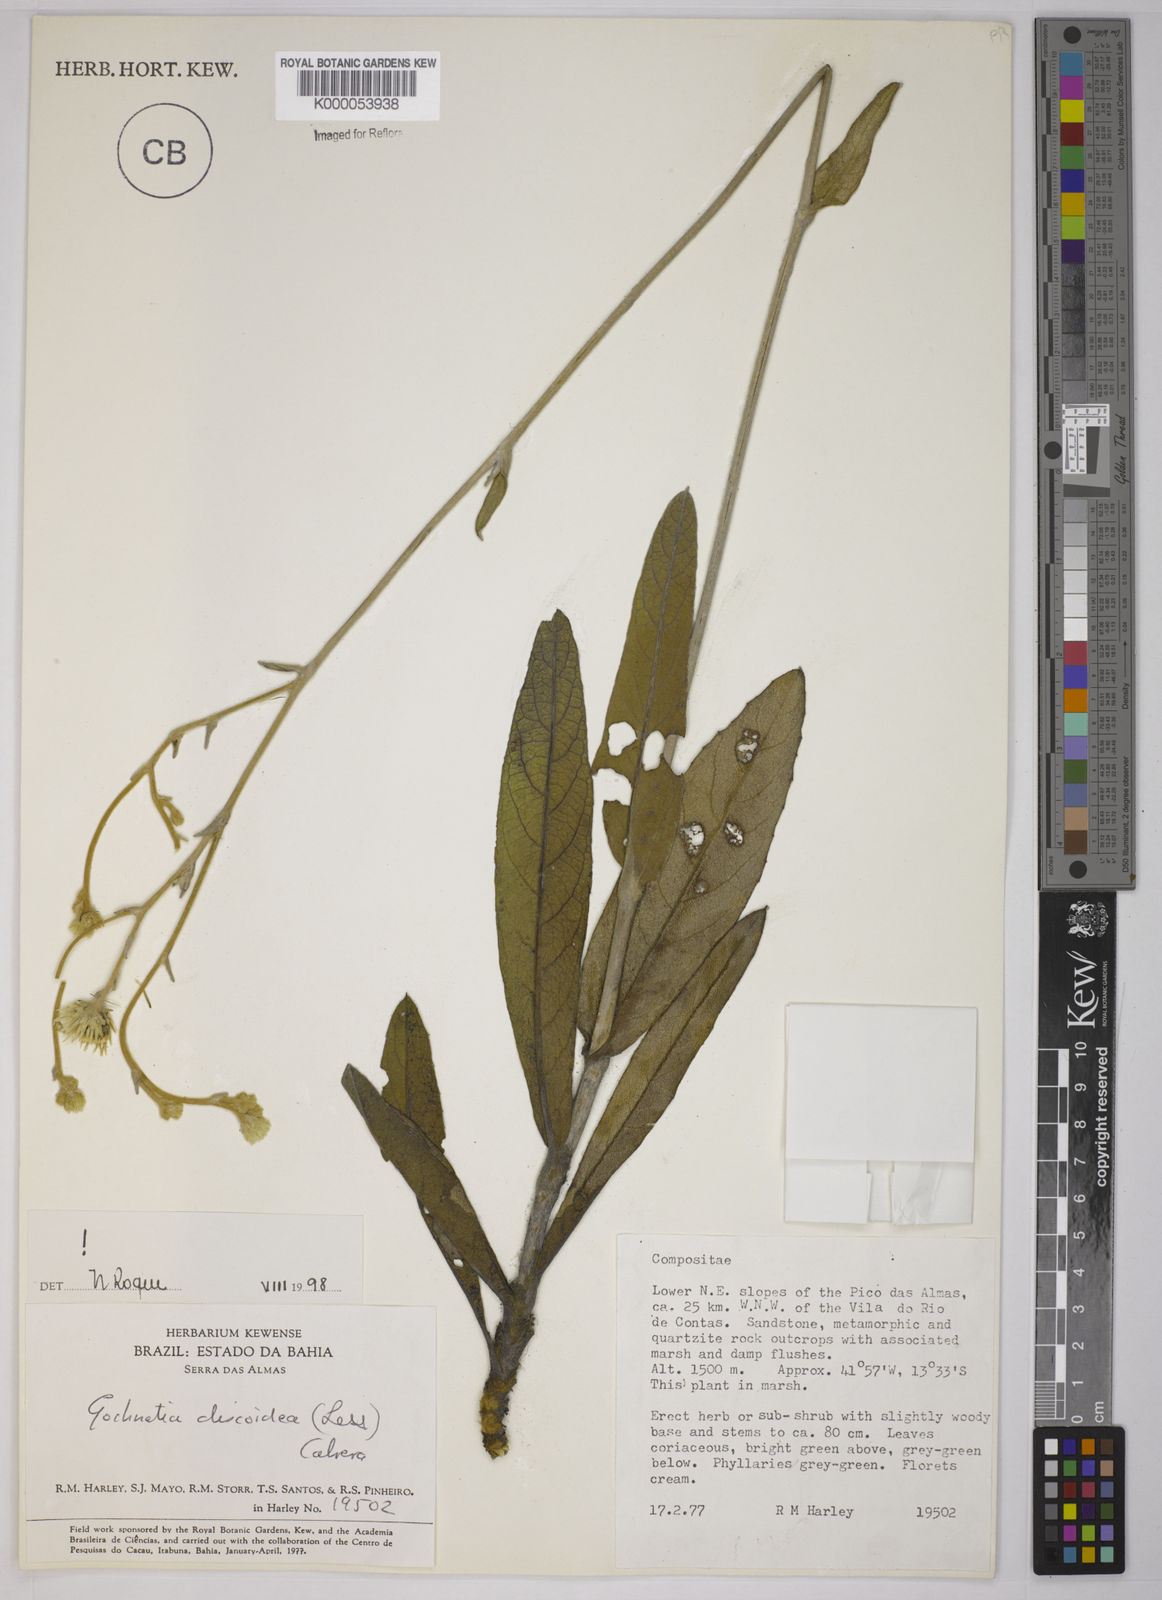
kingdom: Plantae
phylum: Tracheophyta
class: Magnoliopsida
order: Asterales
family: Asteraceae
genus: Richterago
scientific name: Richterago discoidea
